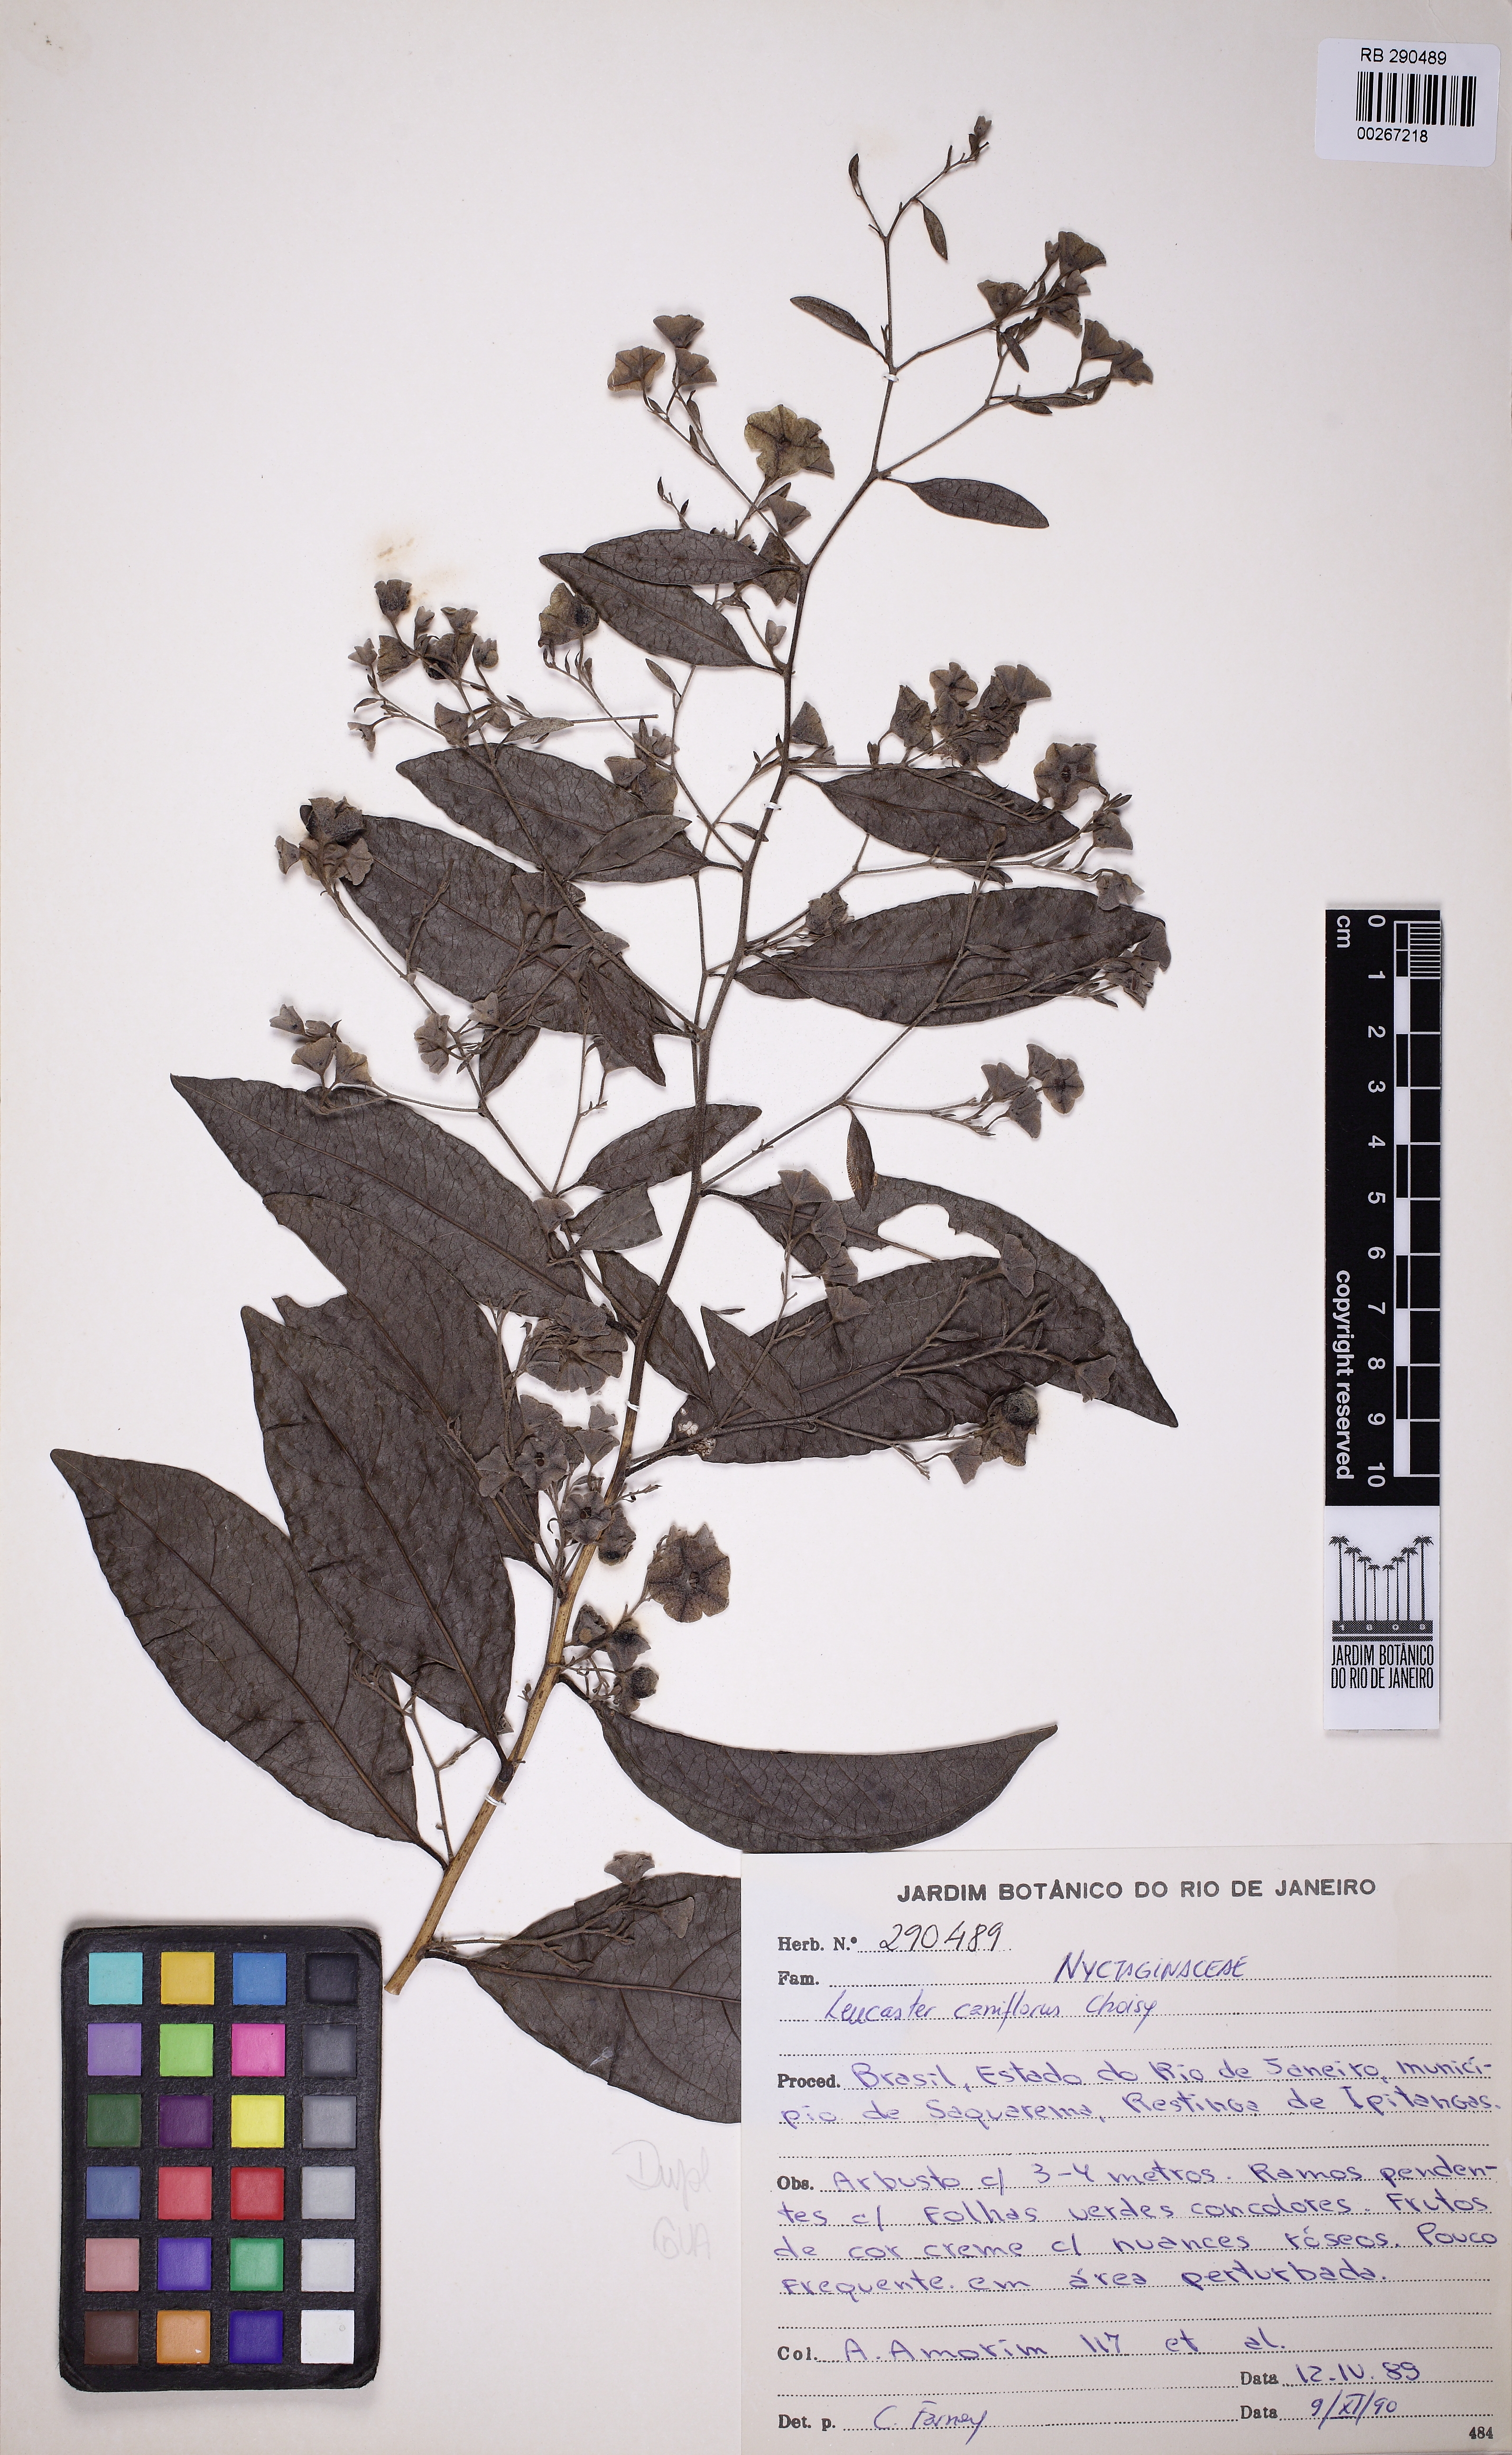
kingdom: Plantae
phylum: Tracheophyta
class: Magnoliopsida
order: Caryophyllales
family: Nyctaginaceae
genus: Leucaster
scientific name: Leucaster caniflorus
